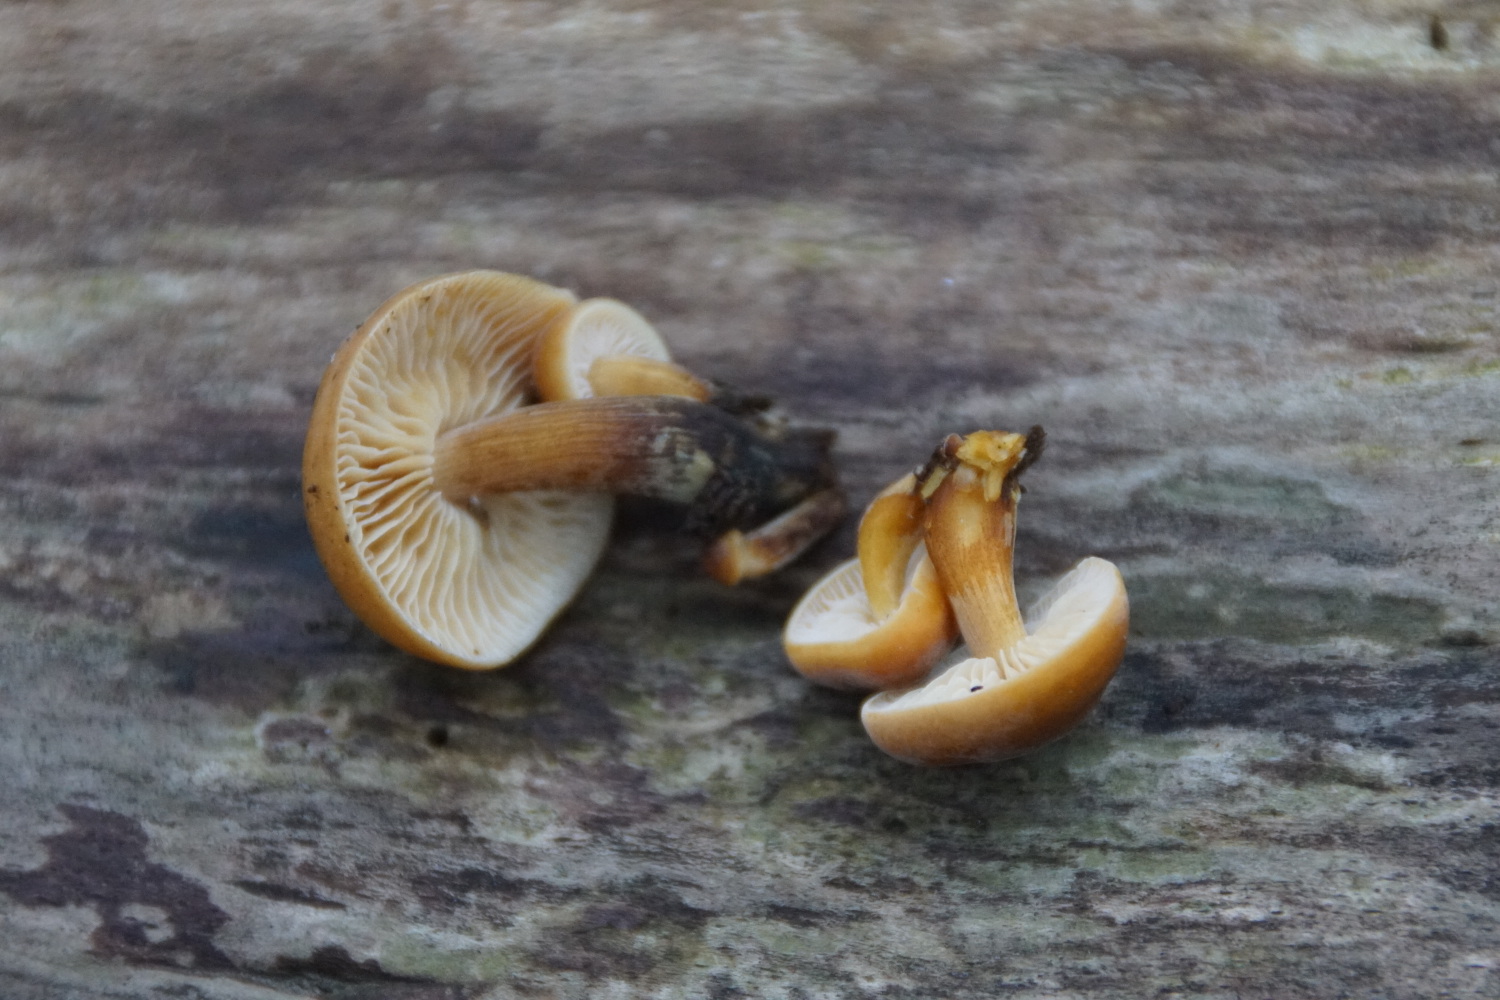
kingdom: Fungi
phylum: Basidiomycota
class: Agaricomycetes
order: Agaricales
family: Physalacriaceae
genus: Flammulina
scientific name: Flammulina velutipes
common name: gul fløjlsfod
